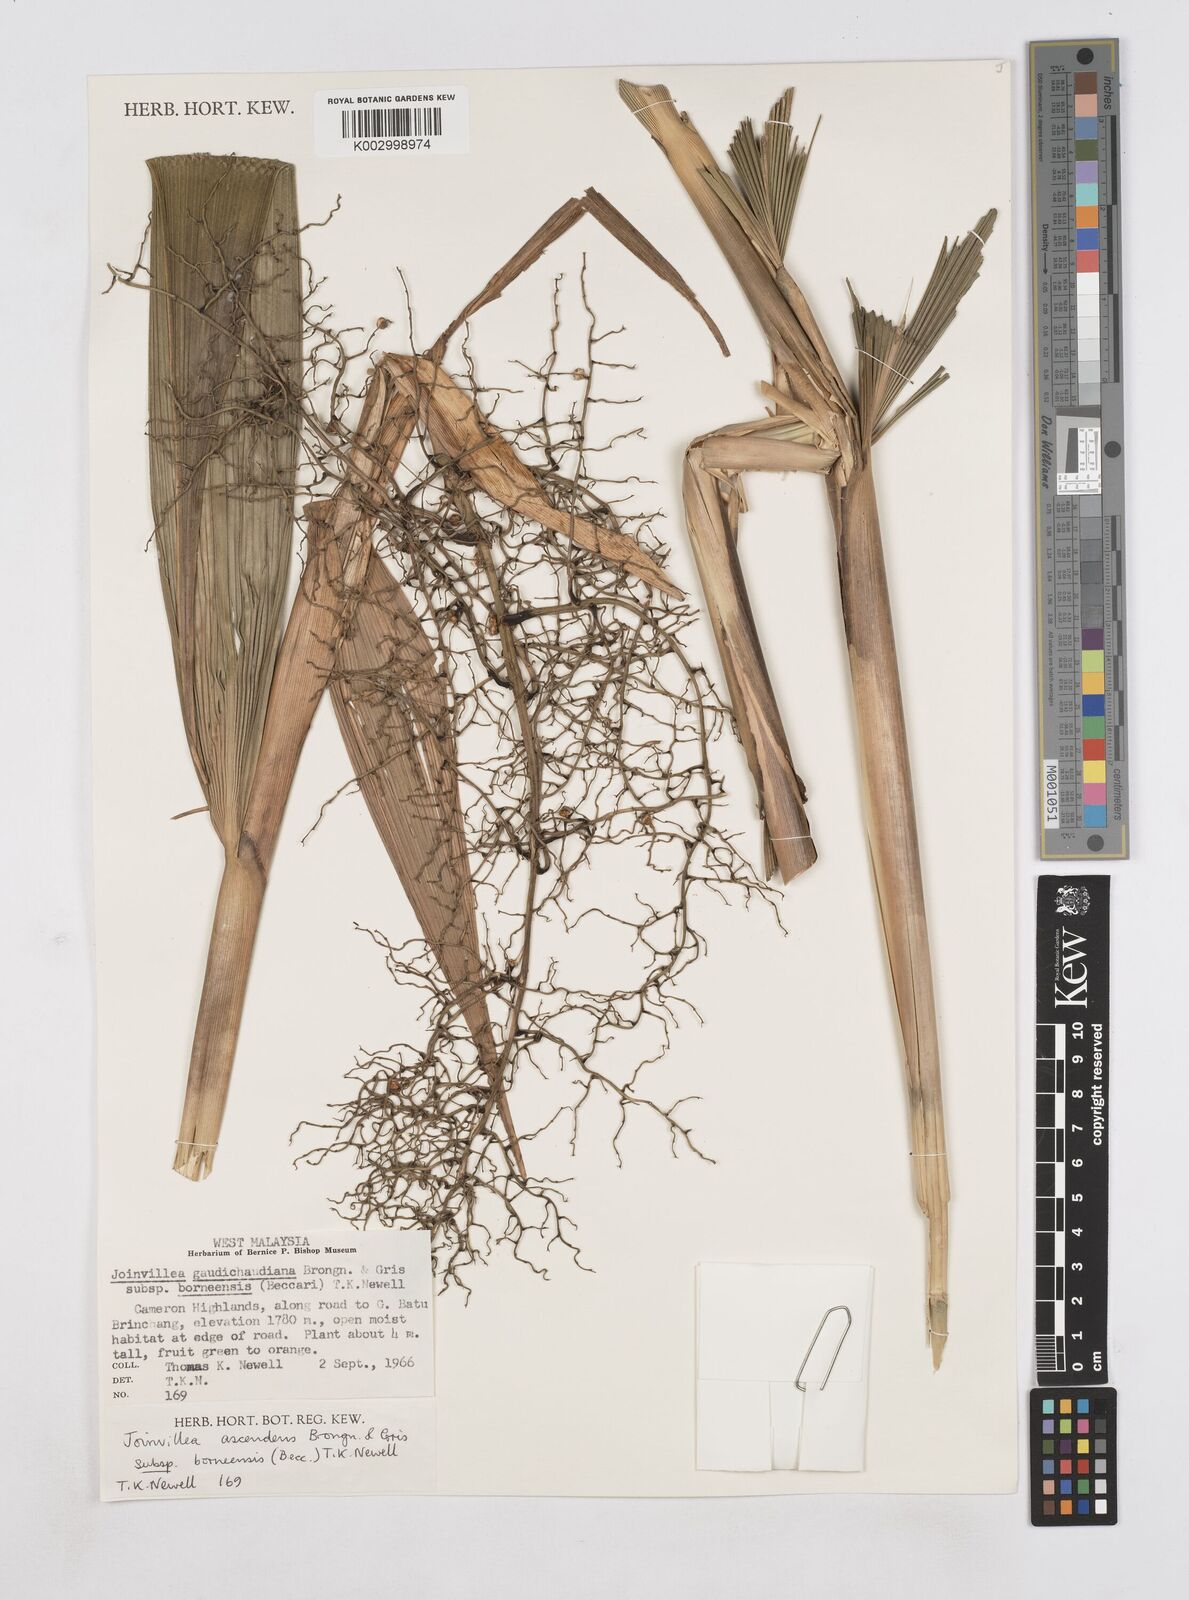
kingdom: Plantae
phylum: Tracheophyta
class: Liliopsida
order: Poales
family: Joinvilleaceae
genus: Joinvillea
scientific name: Joinvillea borneensis
